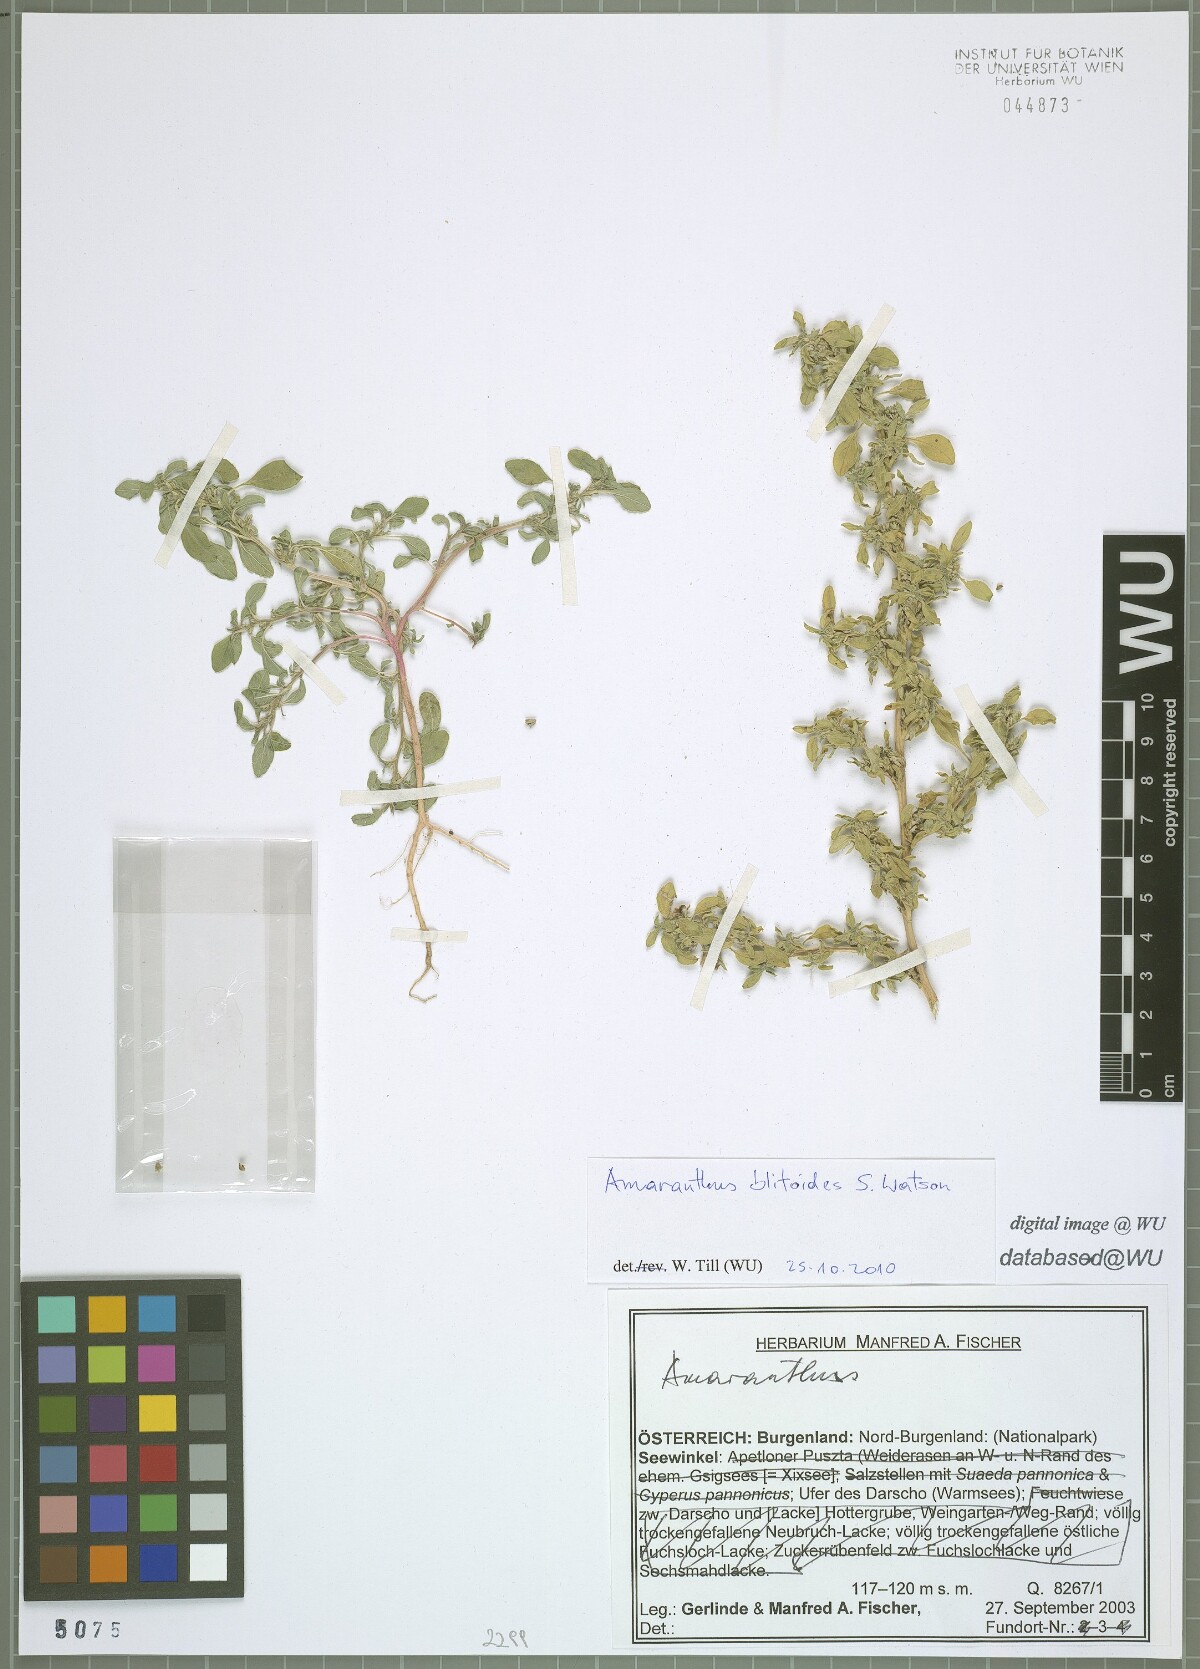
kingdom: Plantae
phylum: Tracheophyta
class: Magnoliopsida
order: Caryophyllales
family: Amaranthaceae
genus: Amaranthus
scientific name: Amaranthus blitoides
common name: Prostrate pigweed
